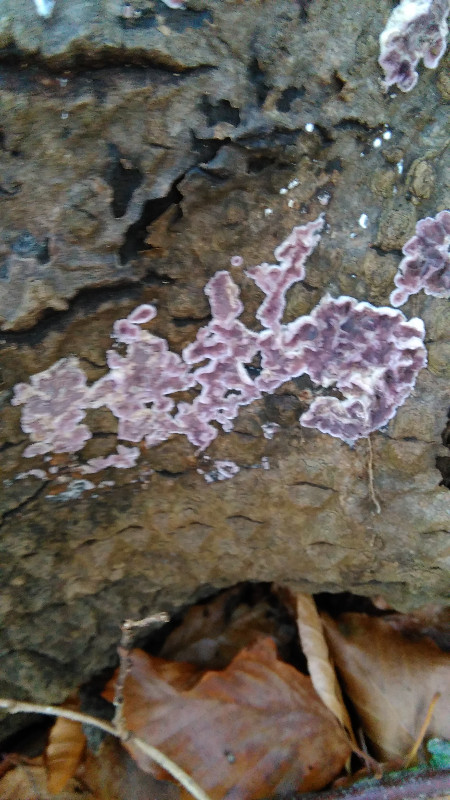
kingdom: Fungi
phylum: Basidiomycota
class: Agaricomycetes
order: Agaricales
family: Cyphellaceae
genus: Chondrostereum
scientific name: Chondrostereum purpureum
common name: purpurlædersvamp
